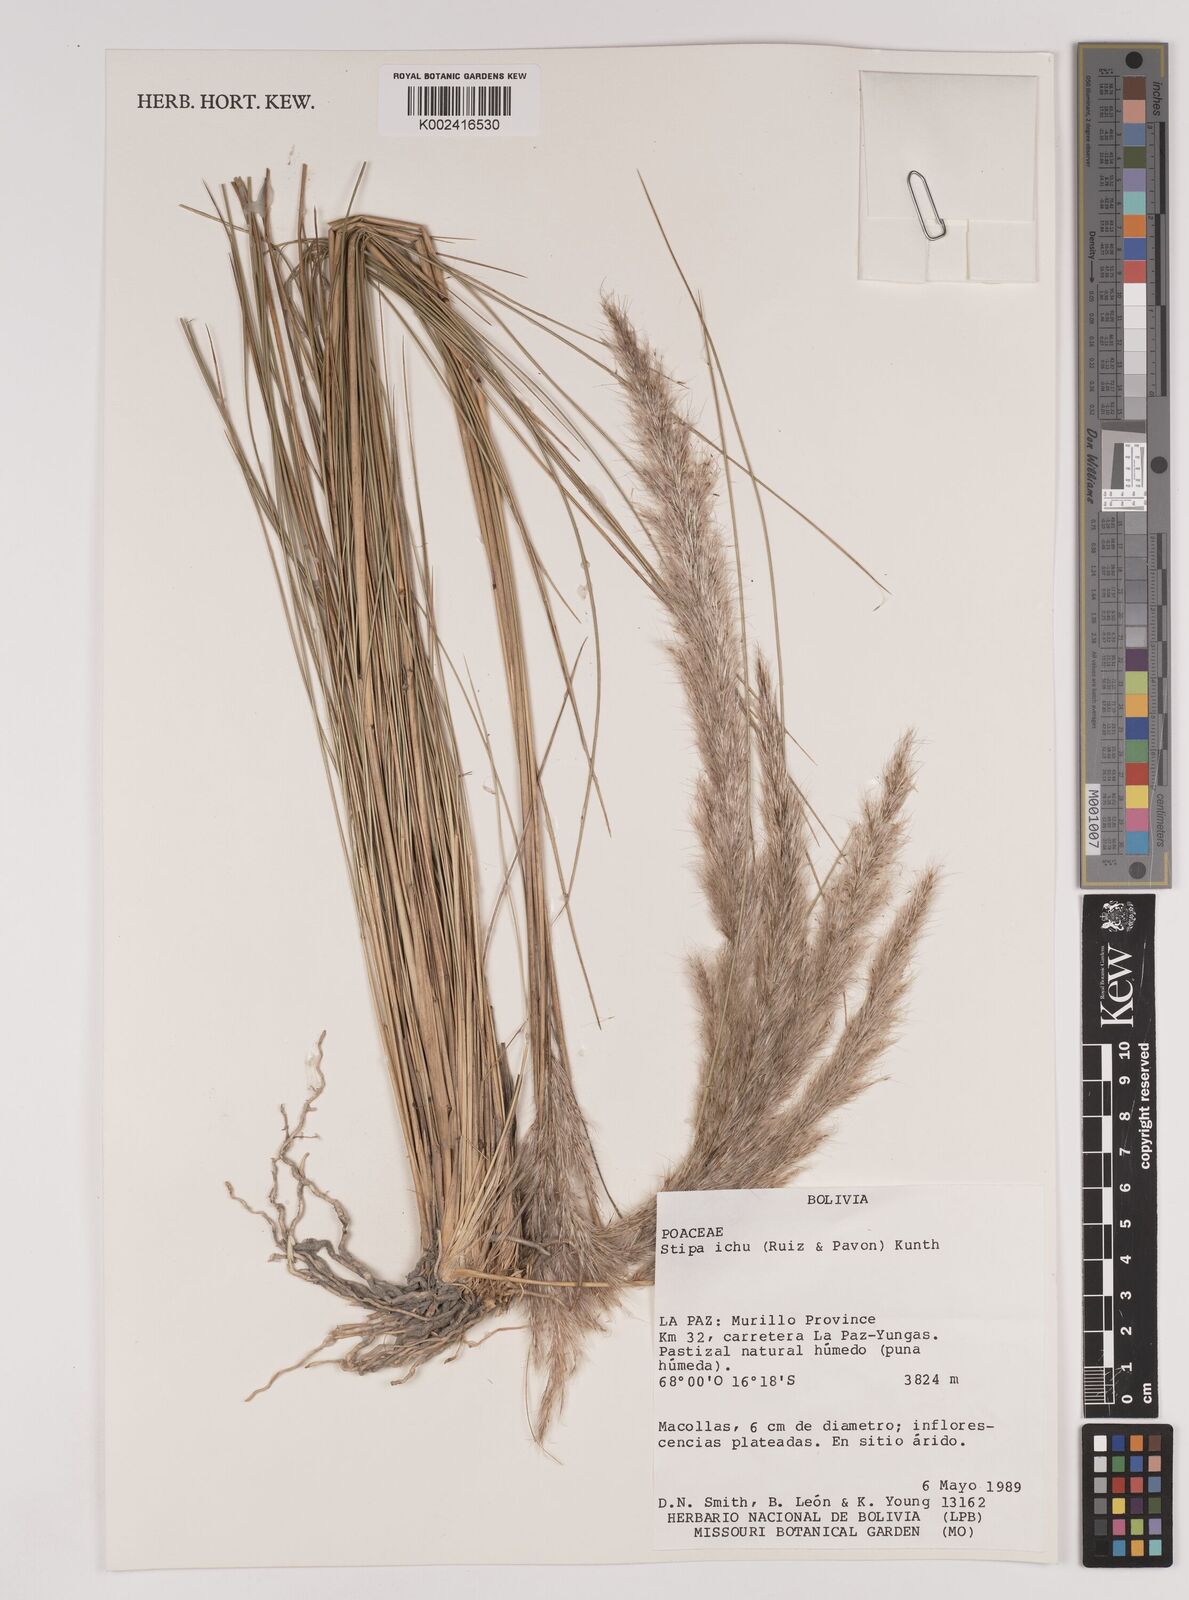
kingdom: Plantae
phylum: Tracheophyta
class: Liliopsida
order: Poales
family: Poaceae
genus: Stipa
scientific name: Stipa
